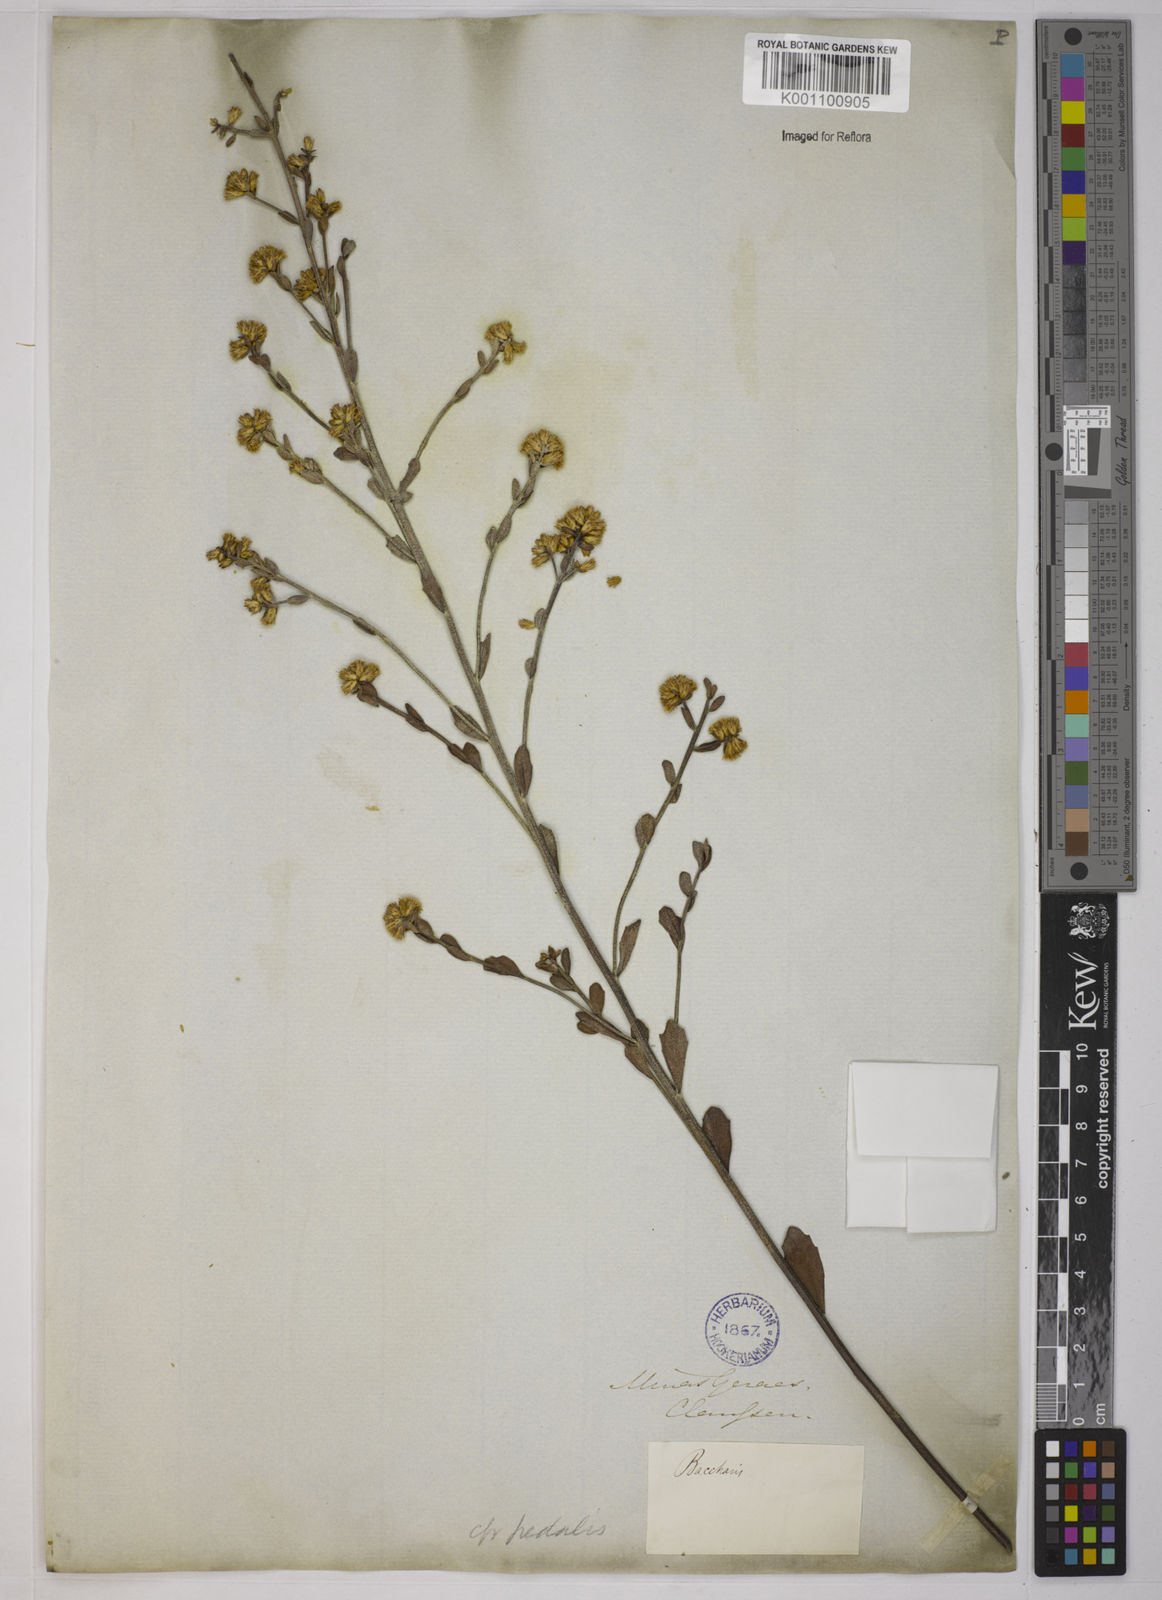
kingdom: Plantae
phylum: Tracheophyta
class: Magnoliopsida
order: Asterales
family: Asteraceae
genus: Baccharis
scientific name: Baccharis subdentata
